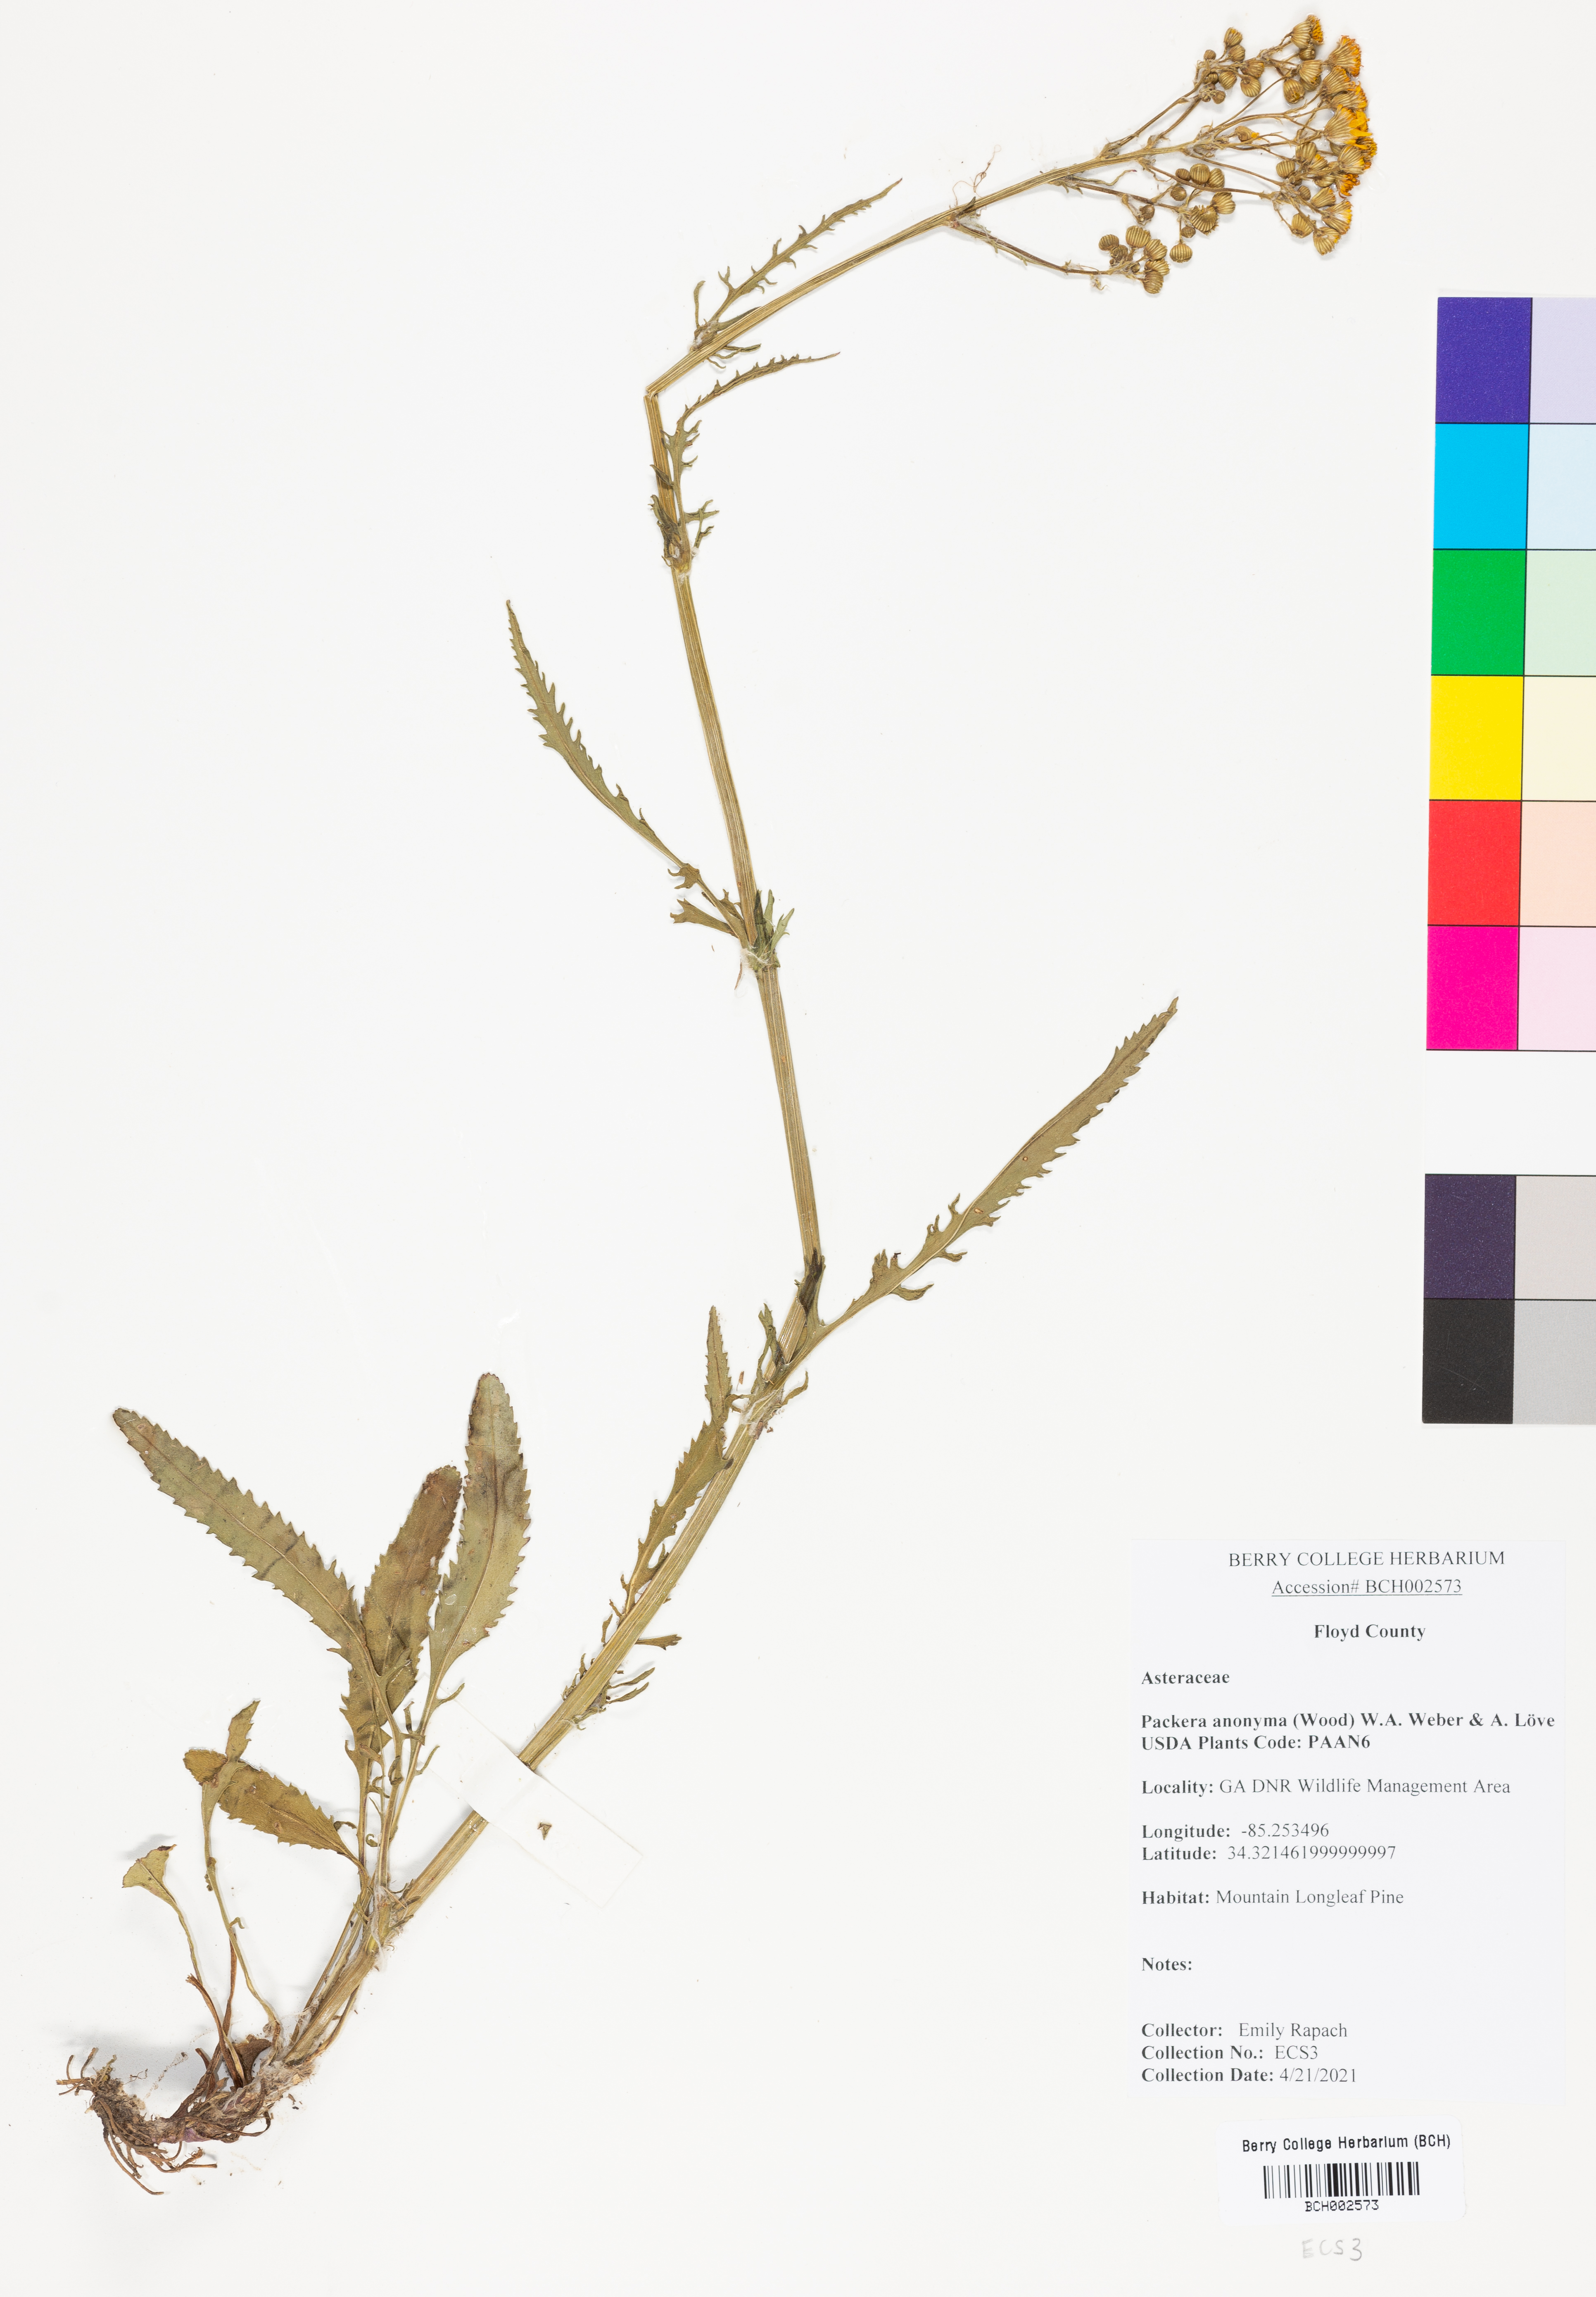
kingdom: Plantae
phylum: Tracheophyta
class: Magnoliopsida
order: Asterales
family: Asteraceae
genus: Packera
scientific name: Packera anonyma
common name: Small ragwort
